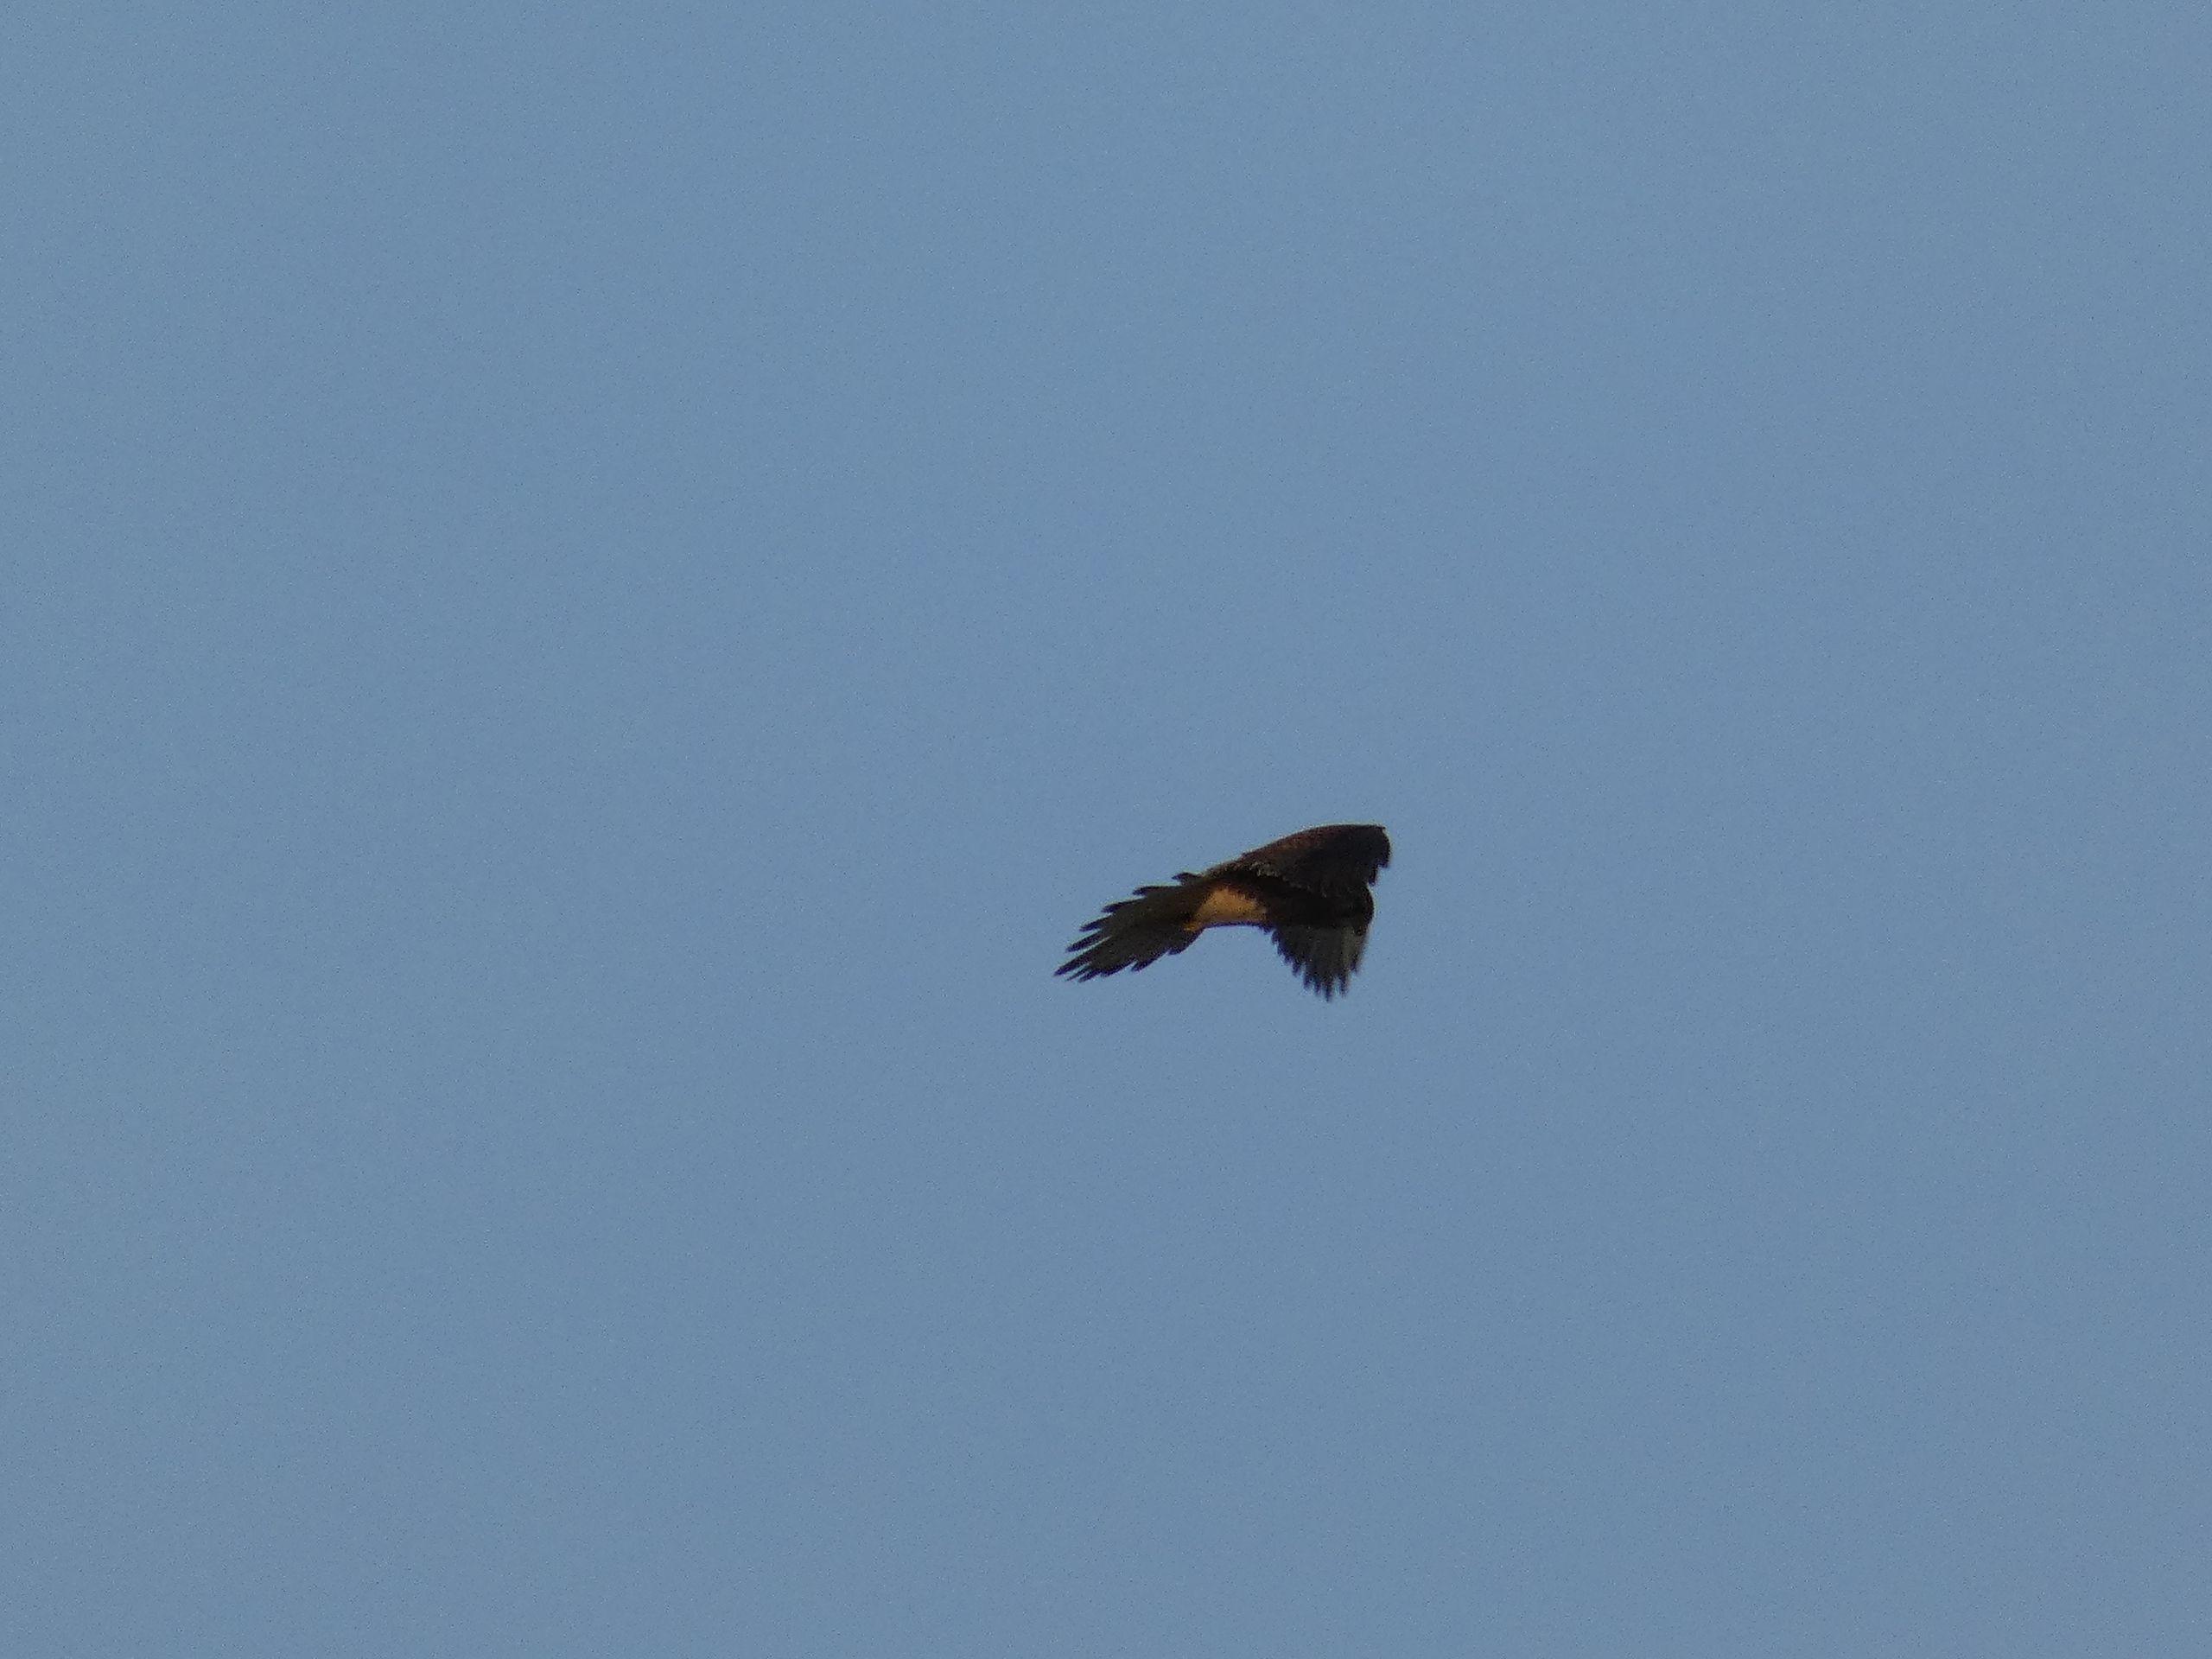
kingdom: Animalia
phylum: Chordata
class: Aves
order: Falconiformes
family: Falconidae
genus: Falco
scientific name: Falco tinnunculus
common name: Tårnfalk
